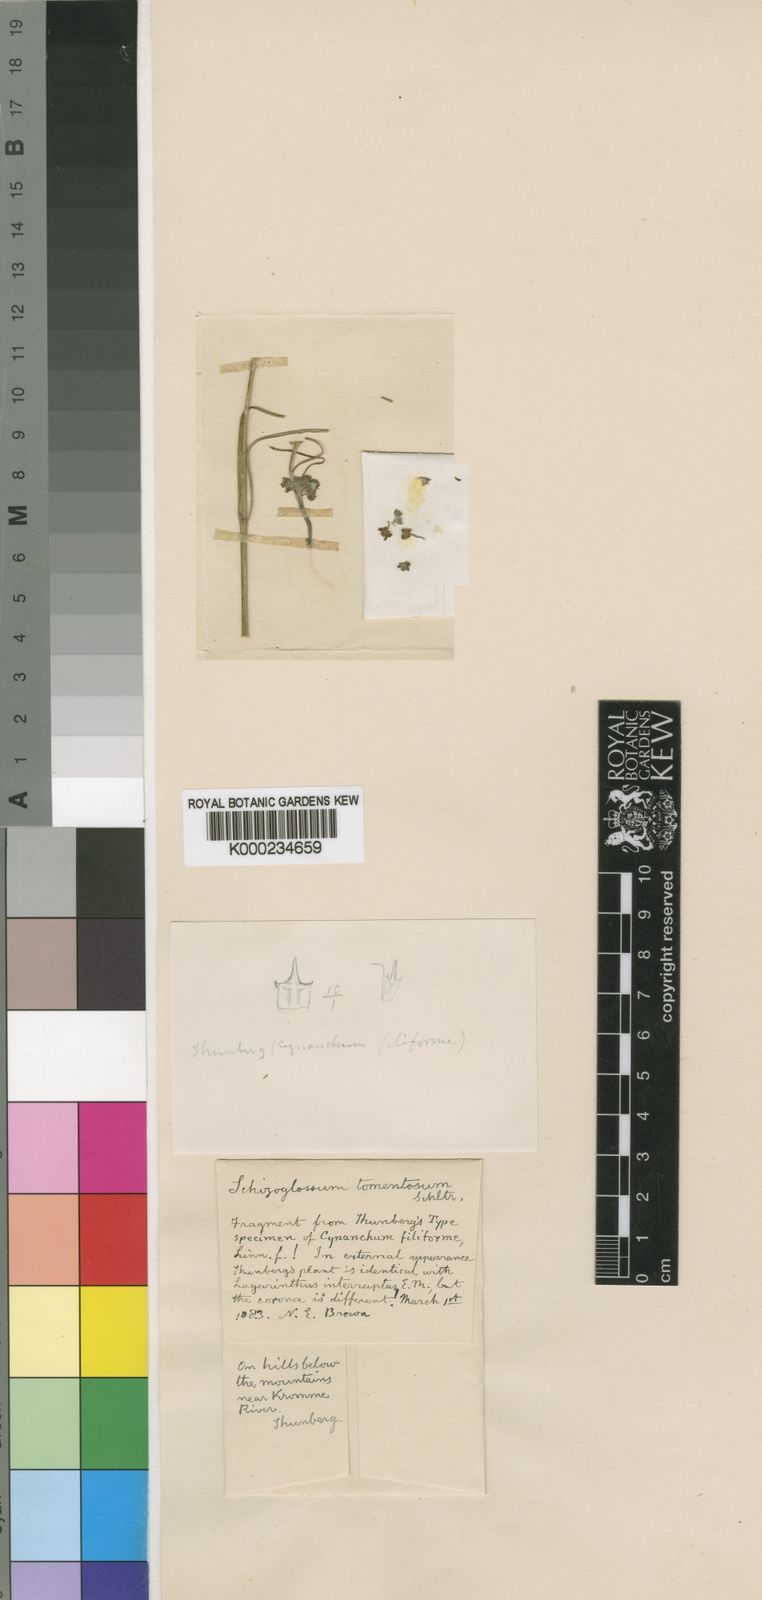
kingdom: Plantae
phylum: Tracheophyta
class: Magnoliopsida
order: Gentianales
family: Apocynaceae
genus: Aspidoglossum
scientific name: Aspidoglossum gracile
